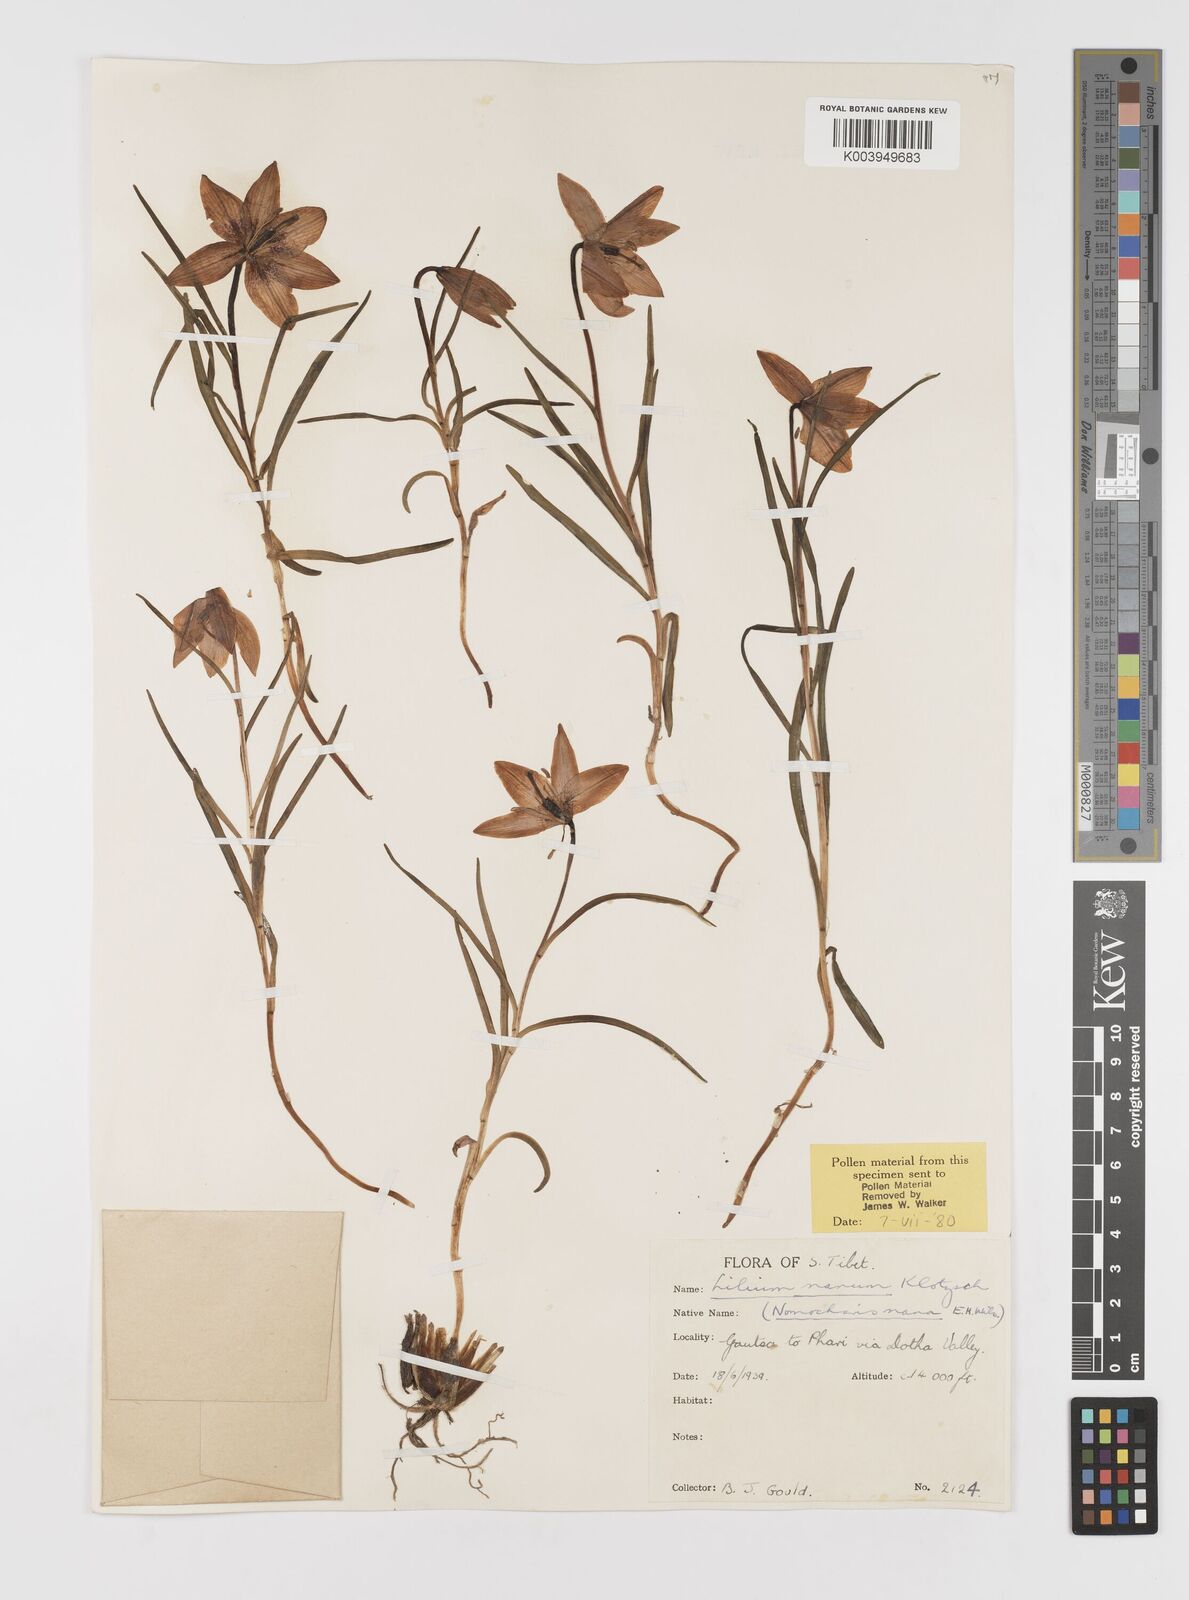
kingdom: Plantae
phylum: Tracheophyta
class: Liliopsida
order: Liliales
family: Liliaceae
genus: Lilium
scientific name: Lilium nanum
